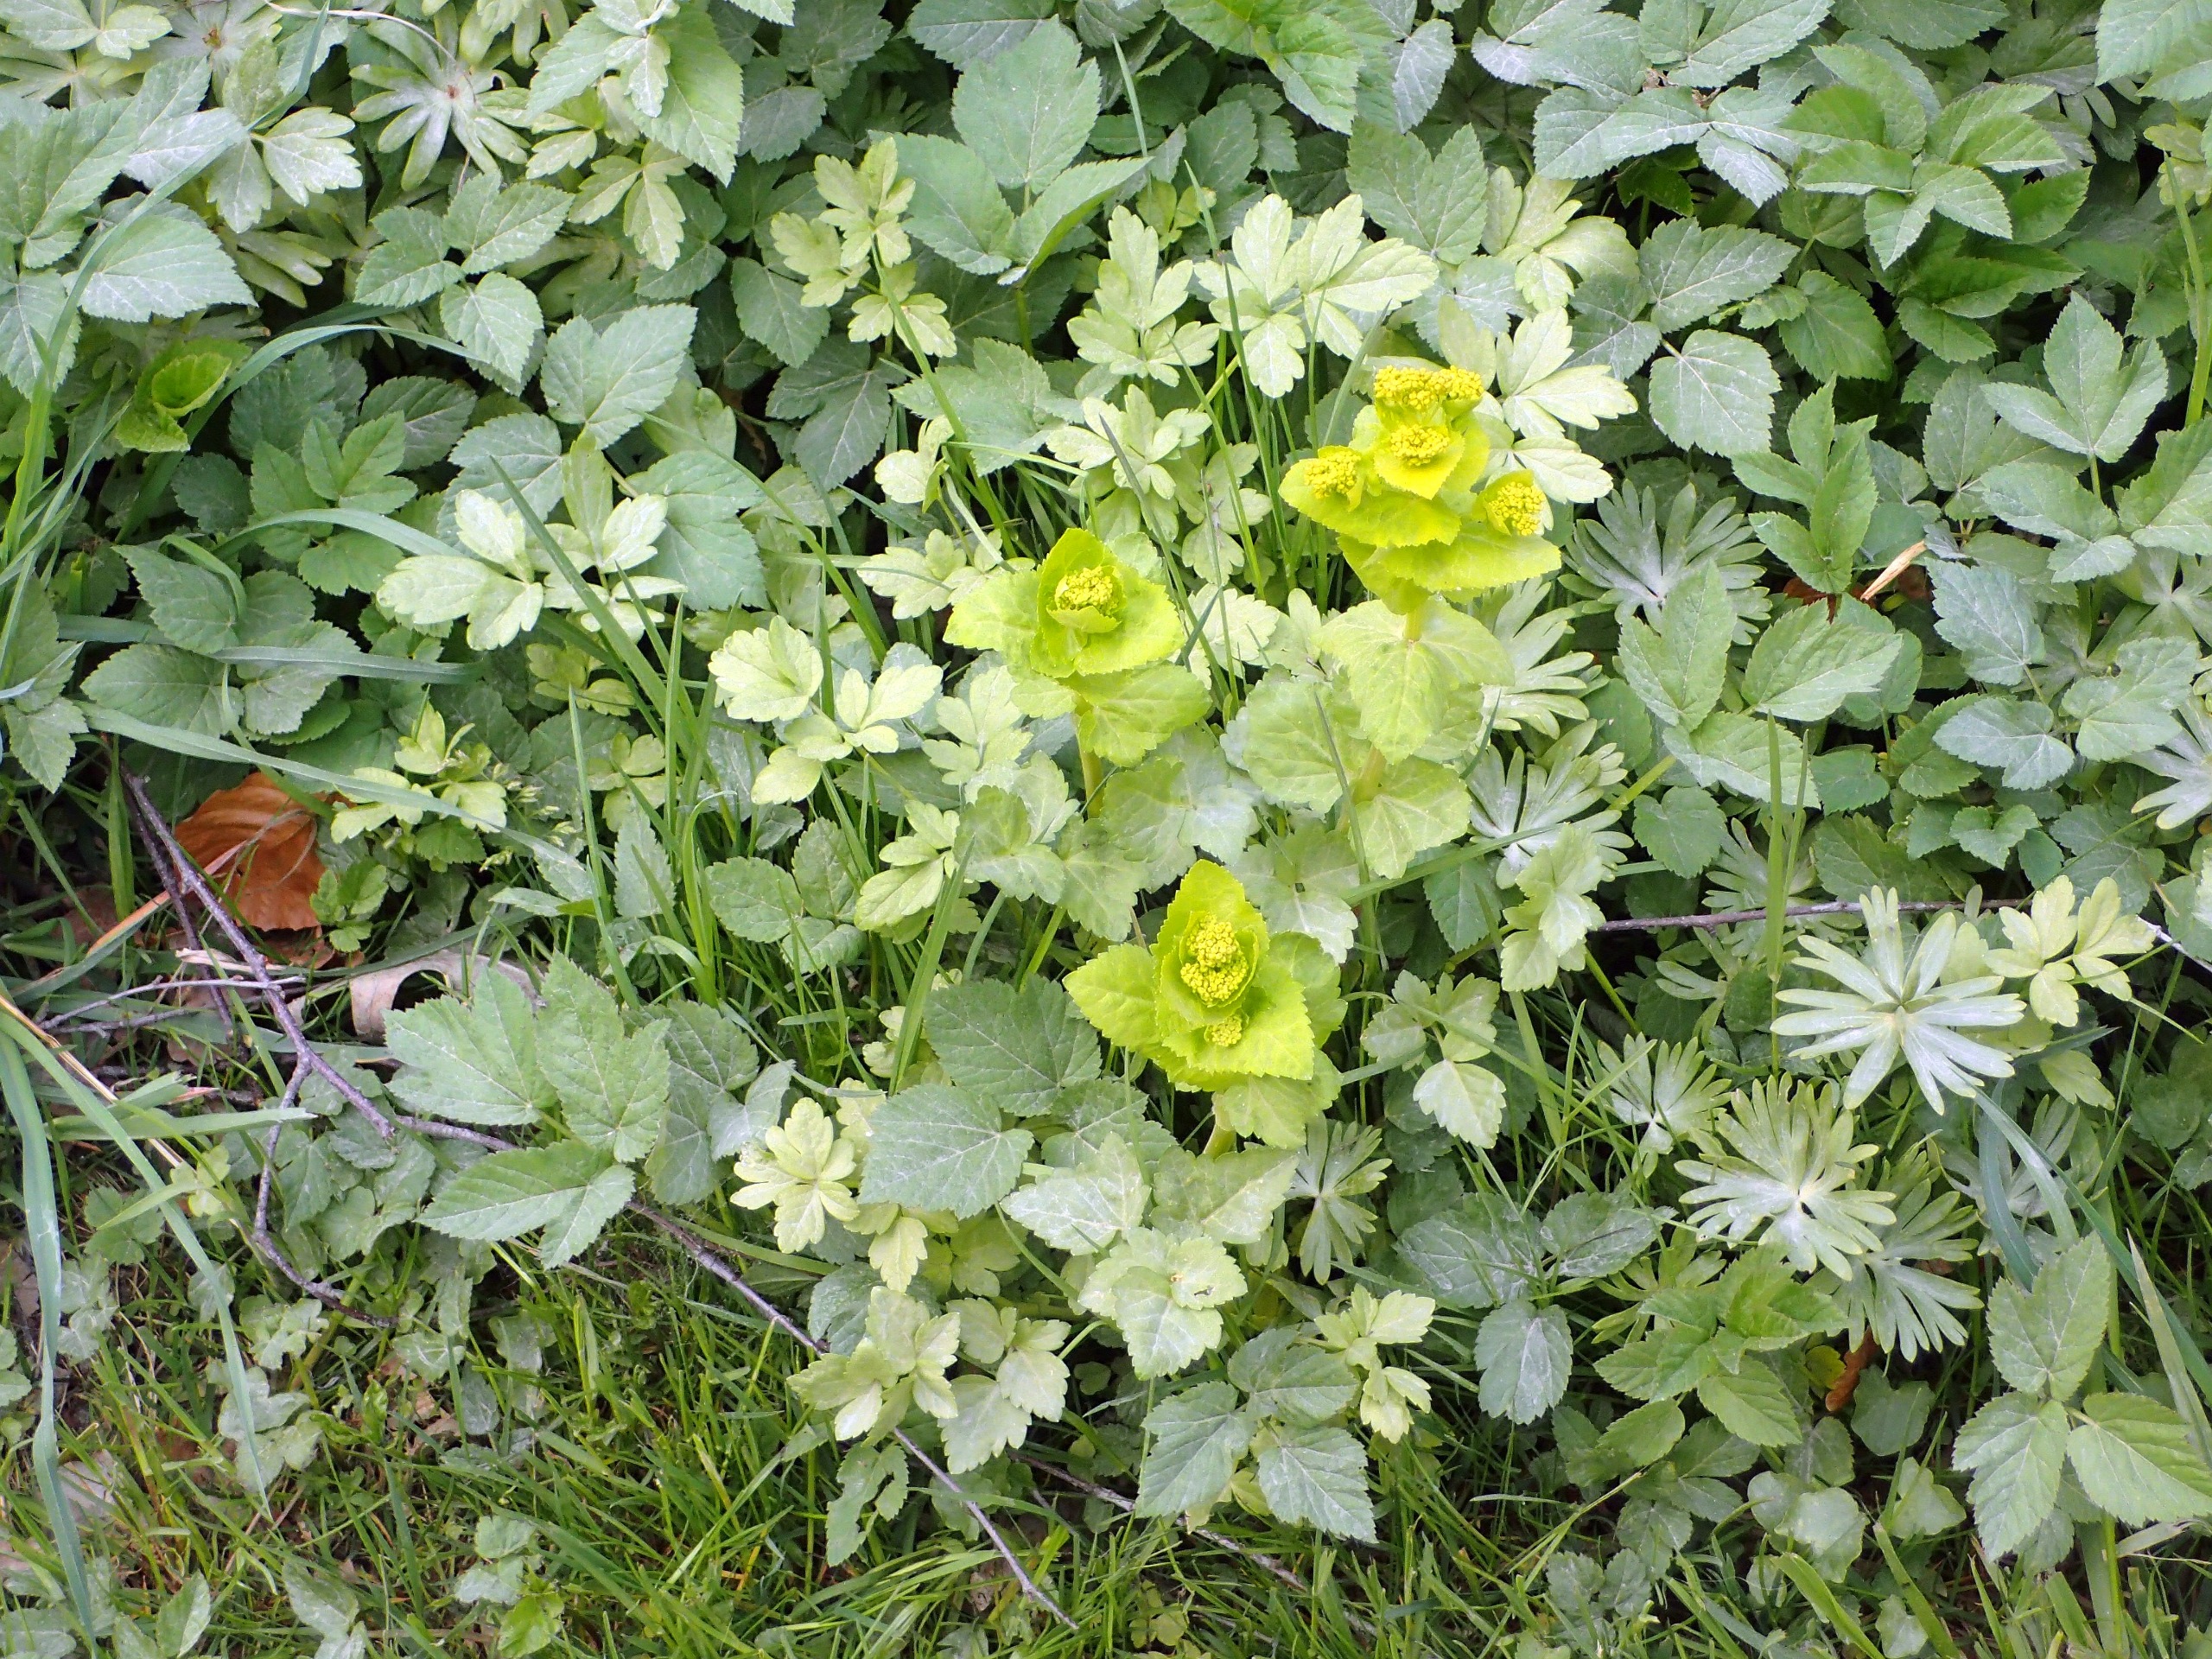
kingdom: Plantae
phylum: Tracheophyta
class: Magnoliopsida
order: Apiales
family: Apiaceae
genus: Smyrnium
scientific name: Smyrnium perfoliatum
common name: Lundgylden
